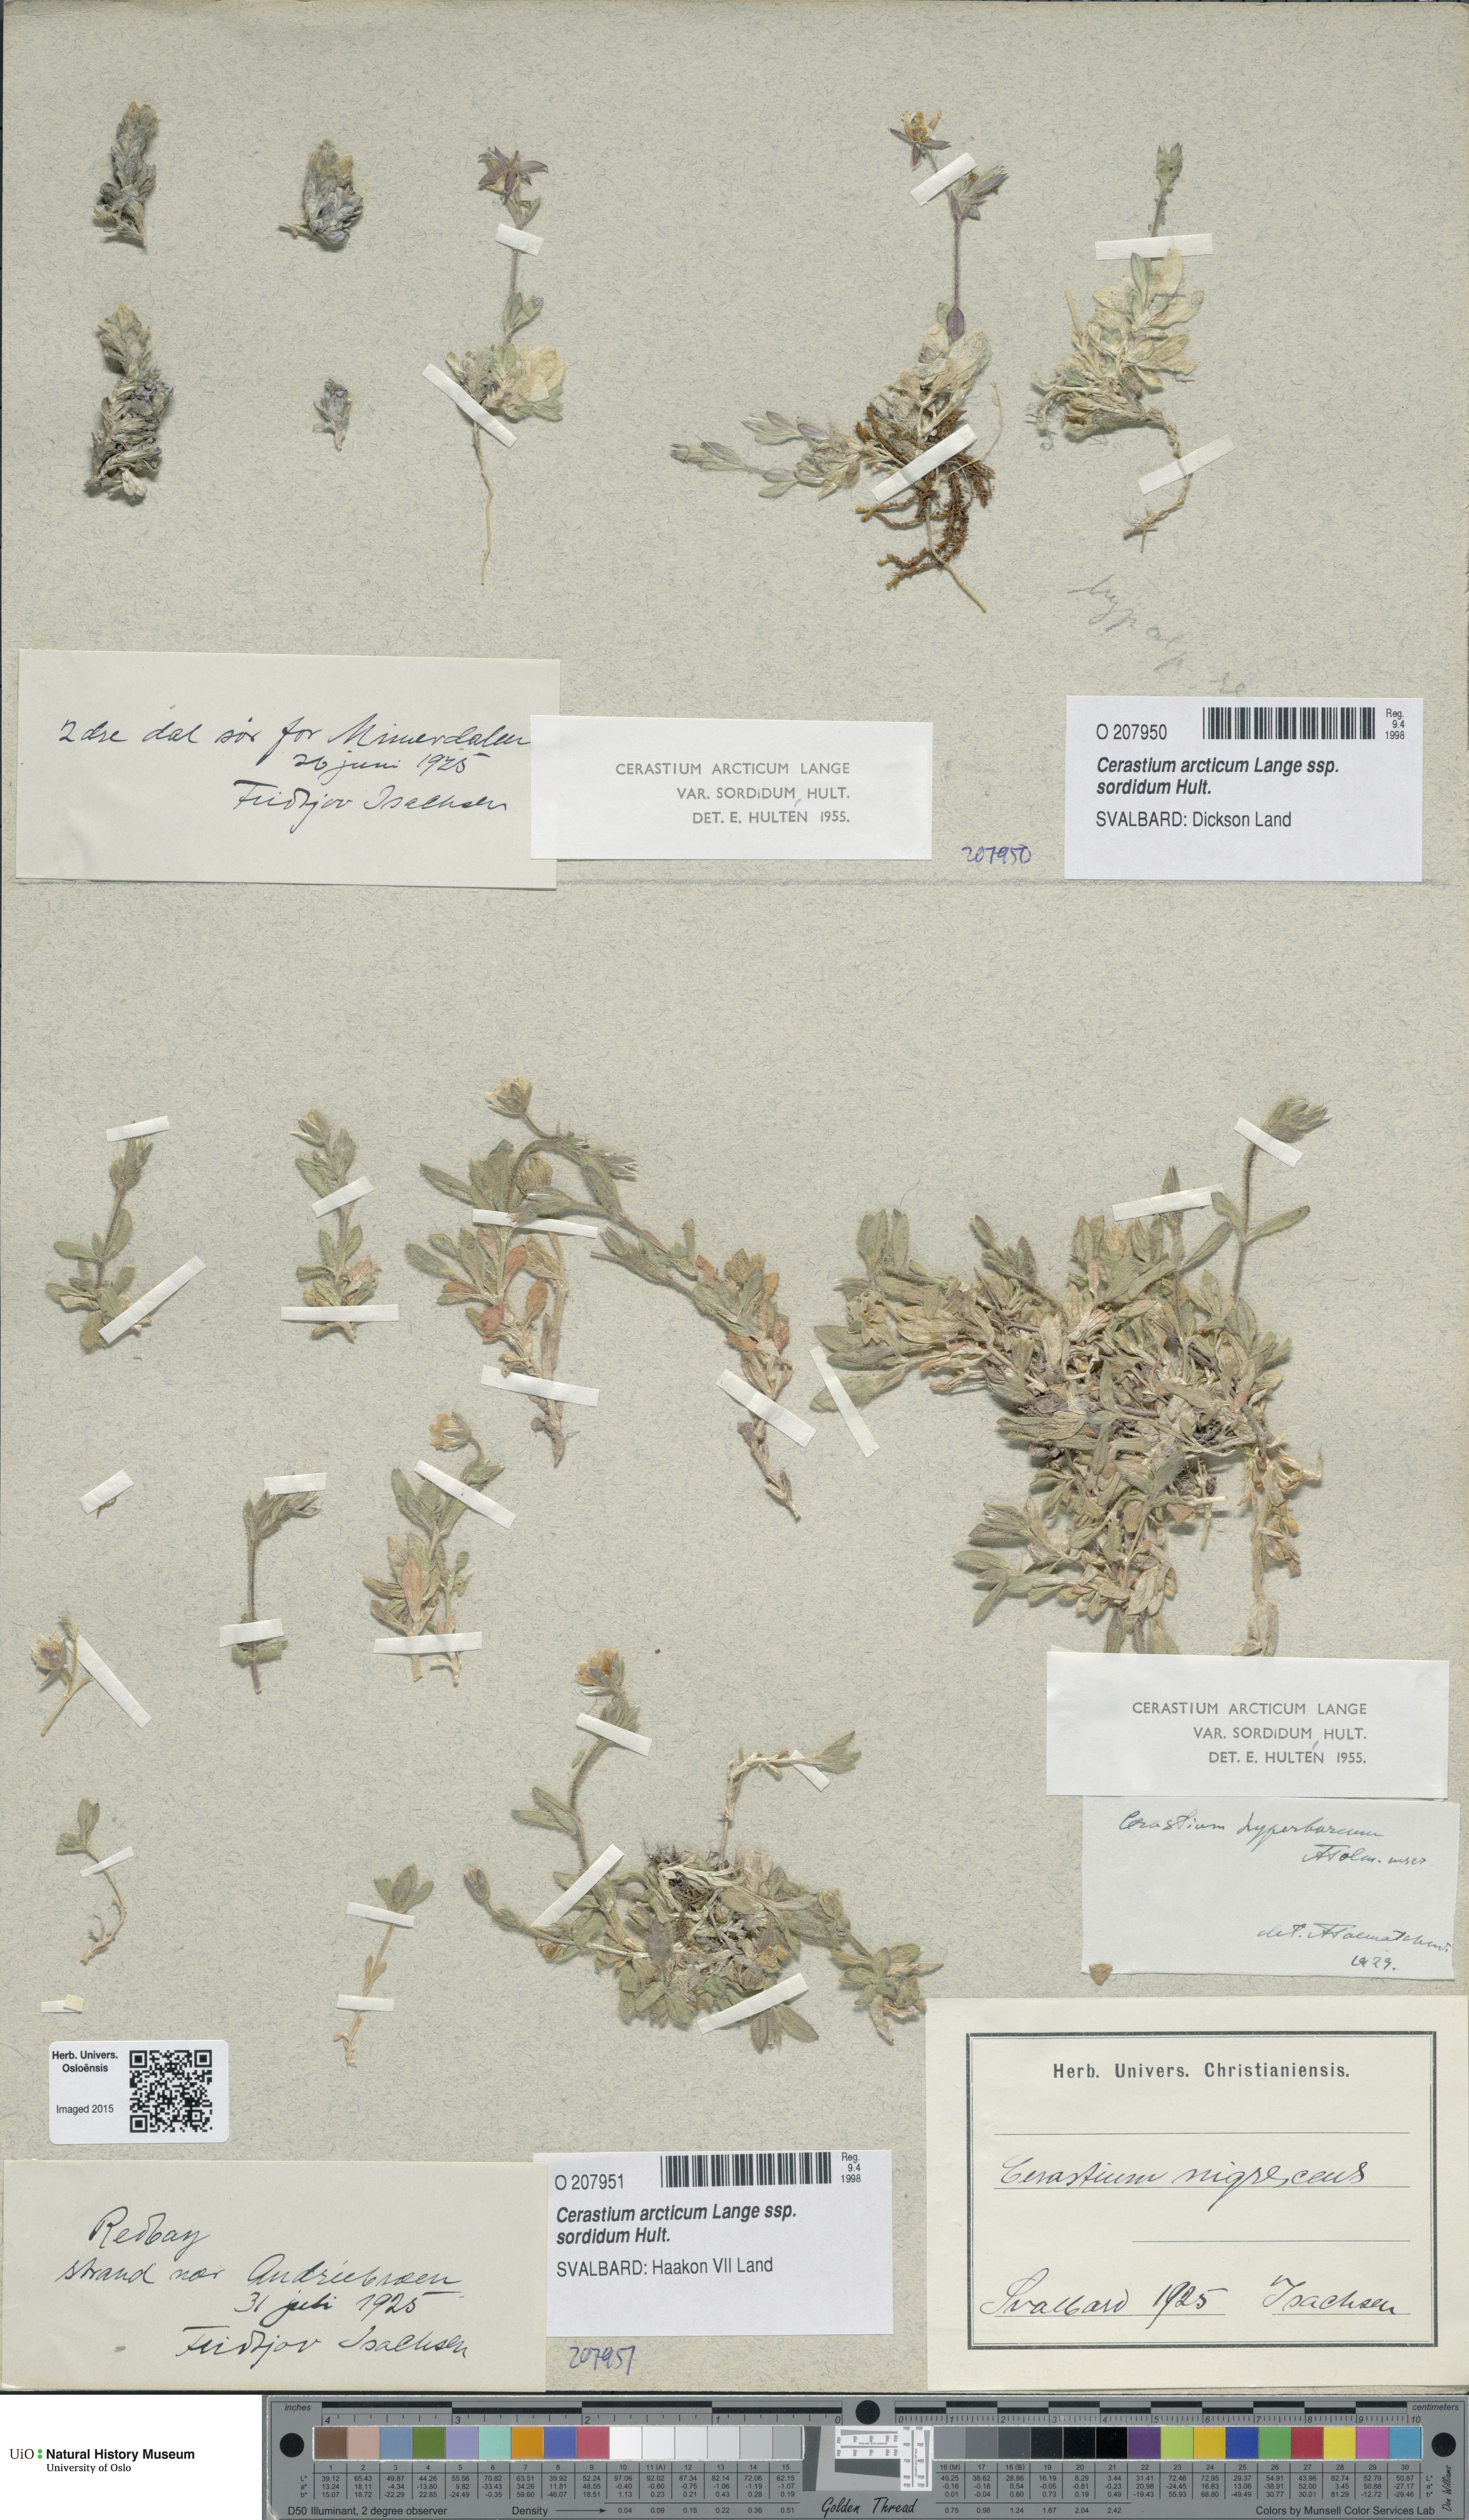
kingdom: Plantae
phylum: Tracheophyta
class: Magnoliopsida
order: Caryophyllales
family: Caryophyllaceae
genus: Cerastium
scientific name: Cerastium sordidum
